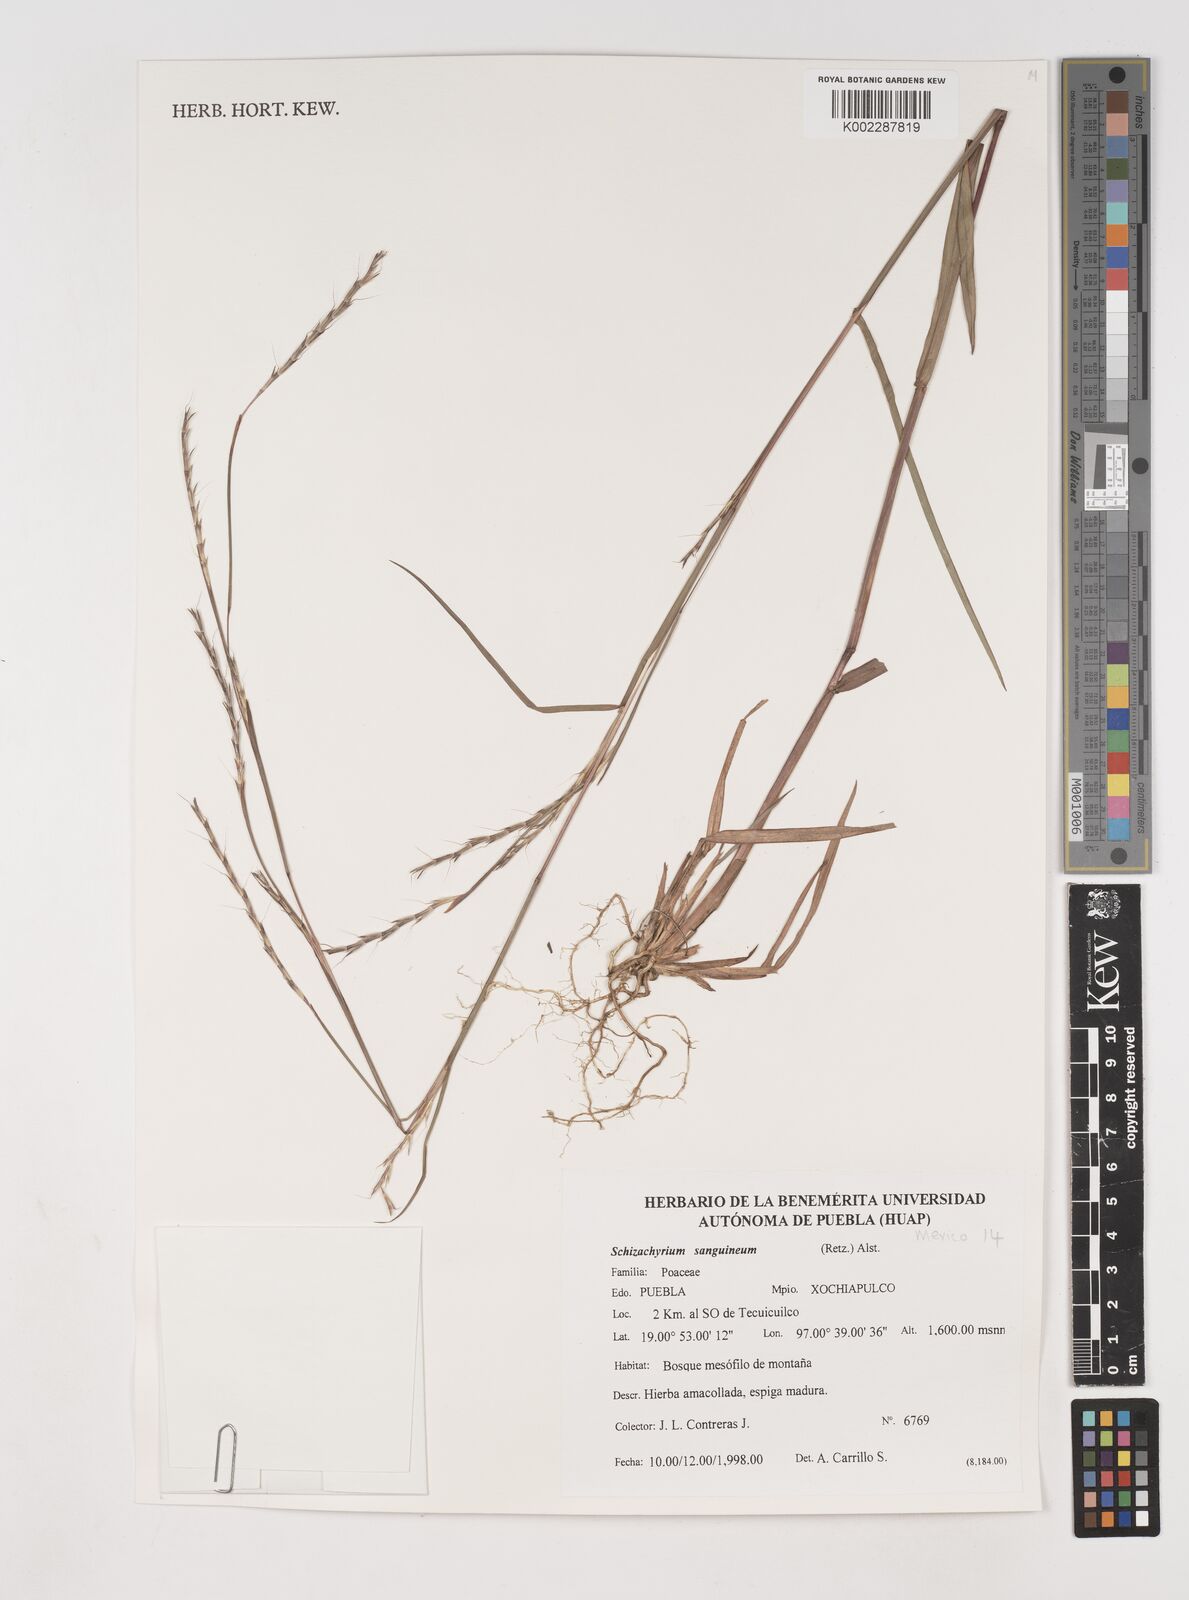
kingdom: Plantae
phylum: Tracheophyta
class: Liliopsida
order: Poales
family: Poaceae
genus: Schizachyrium
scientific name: Schizachyrium sanguineum
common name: Crimson bluestem
